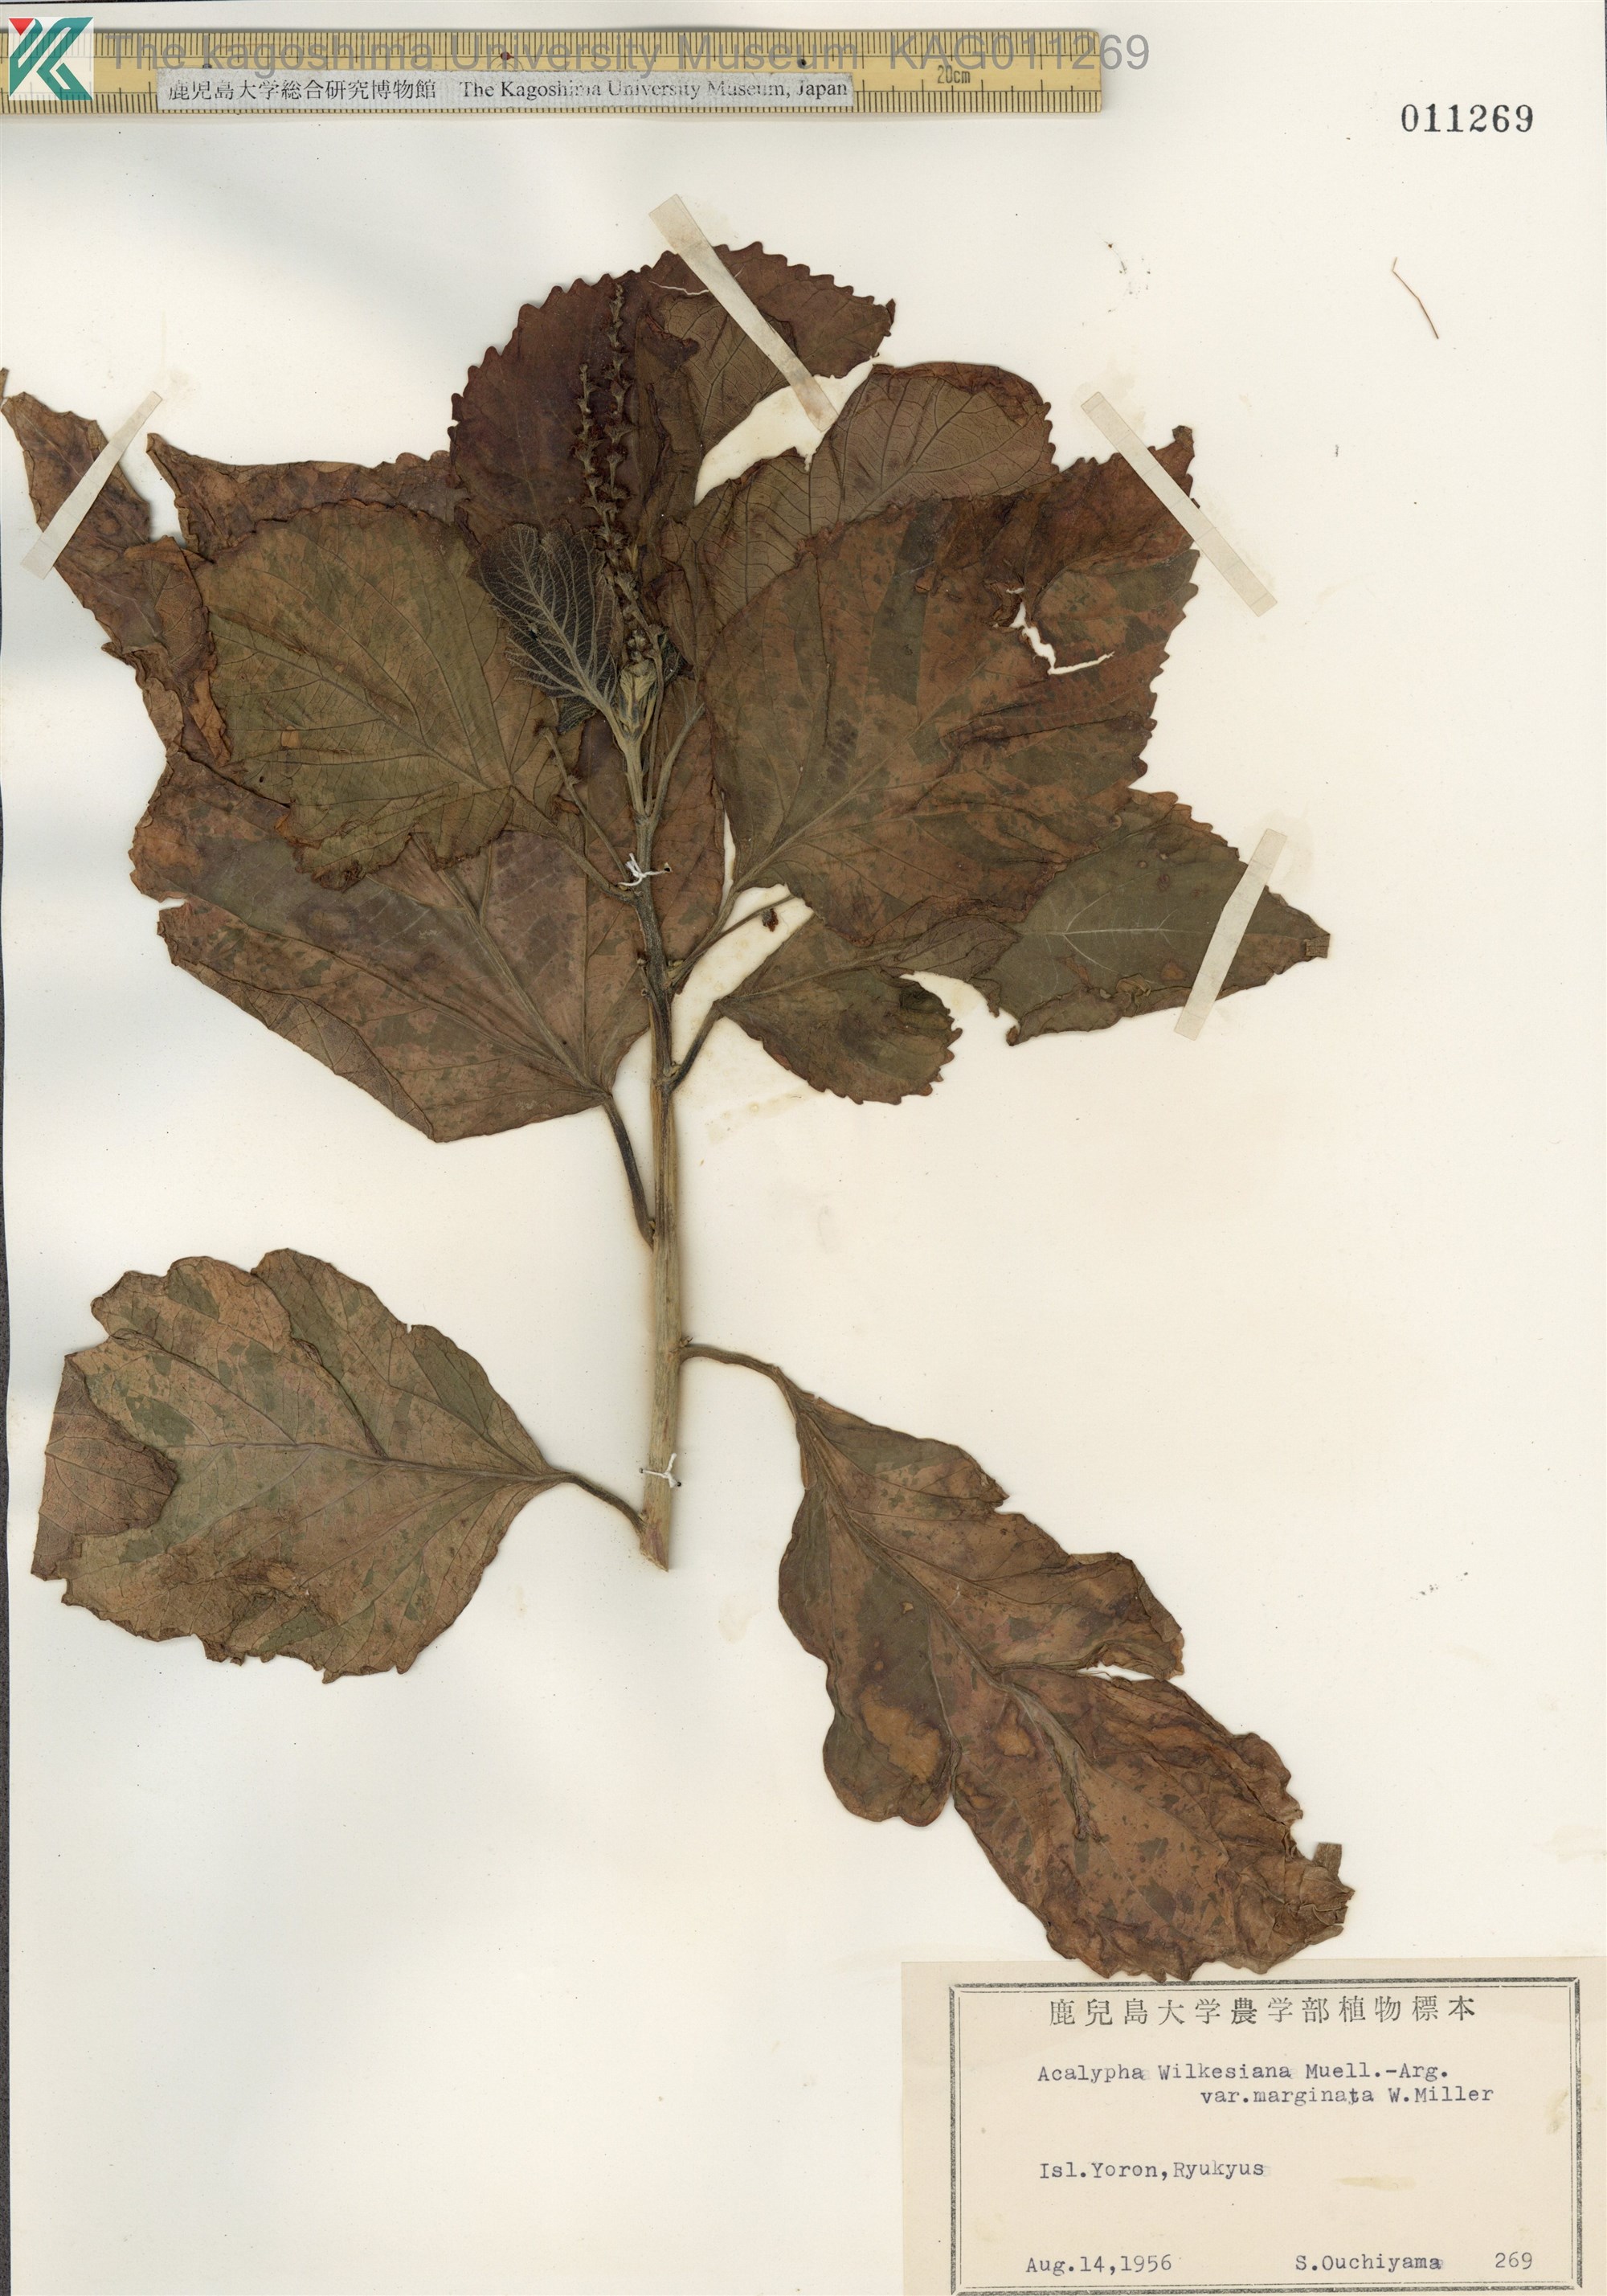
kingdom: Plantae
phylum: Tracheophyta
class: Magnoliopsida
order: Malpighiales
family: Euphorbiaceae
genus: Acalypha
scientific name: Acalypha wilkesiana
